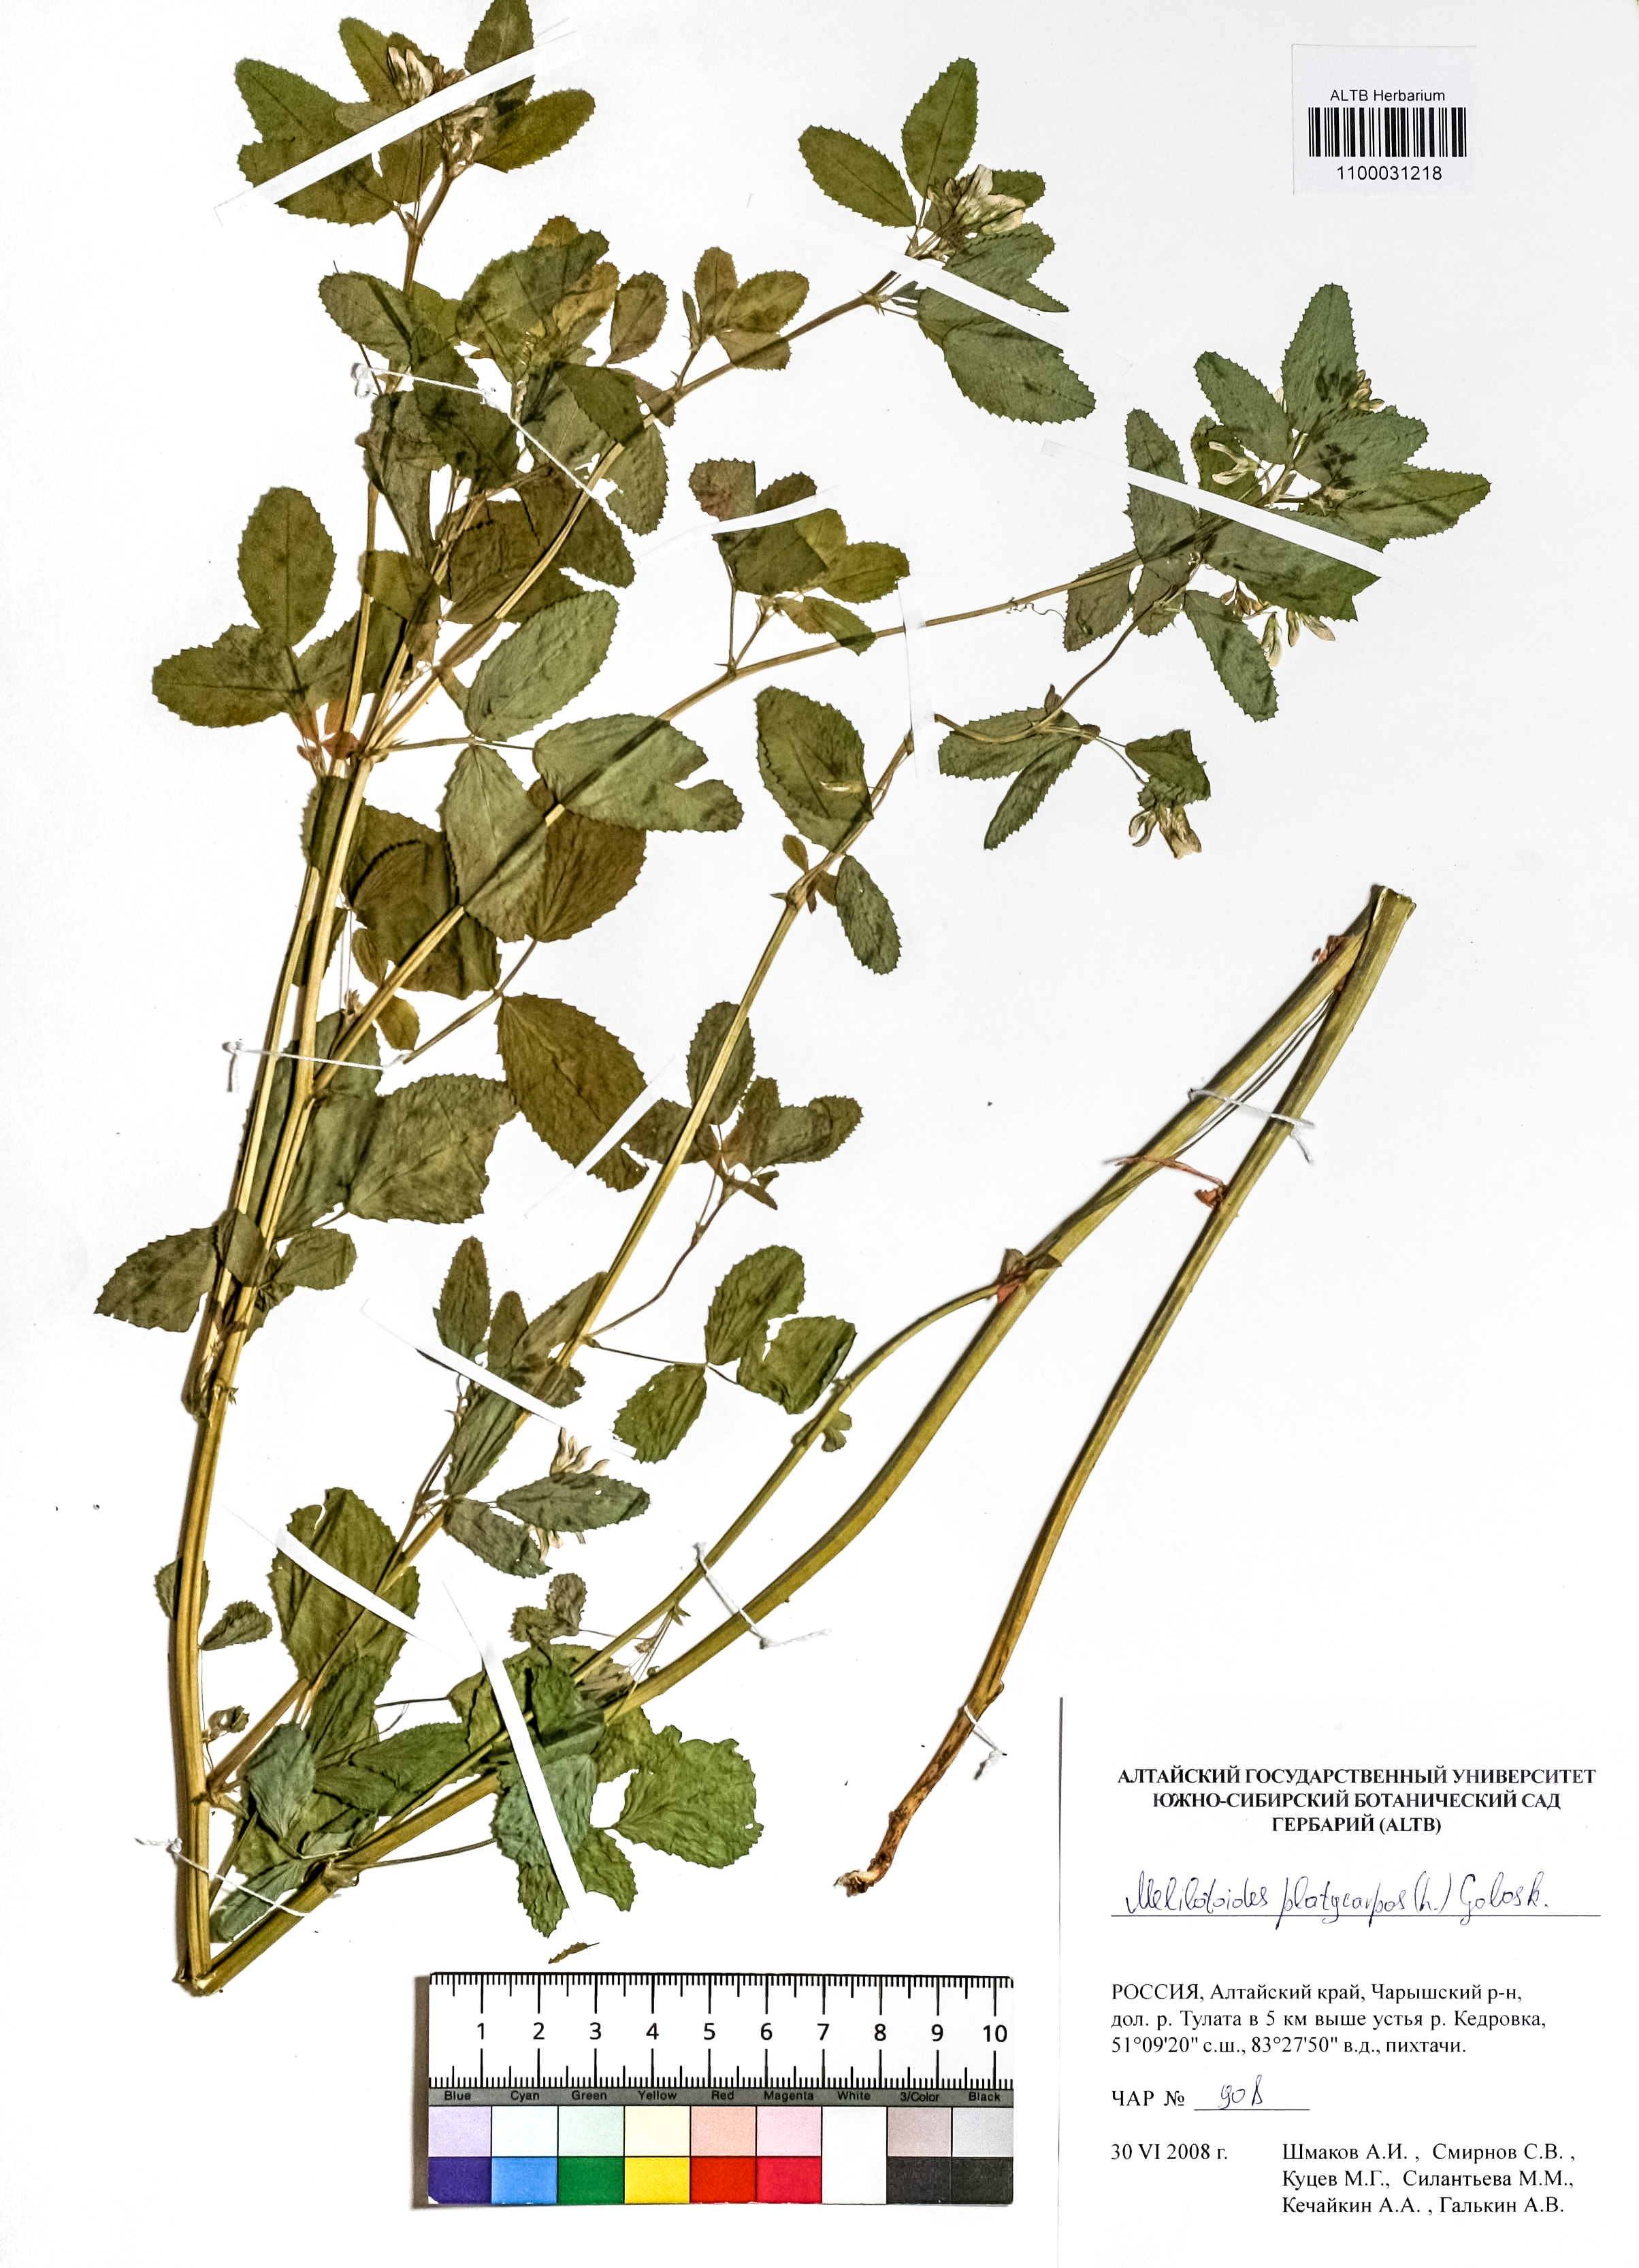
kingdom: Plantae
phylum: Tracheophyta
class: Magnoliopsida
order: Fabales
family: Fabaceae
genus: Medicago
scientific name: Medicago platycarpos
